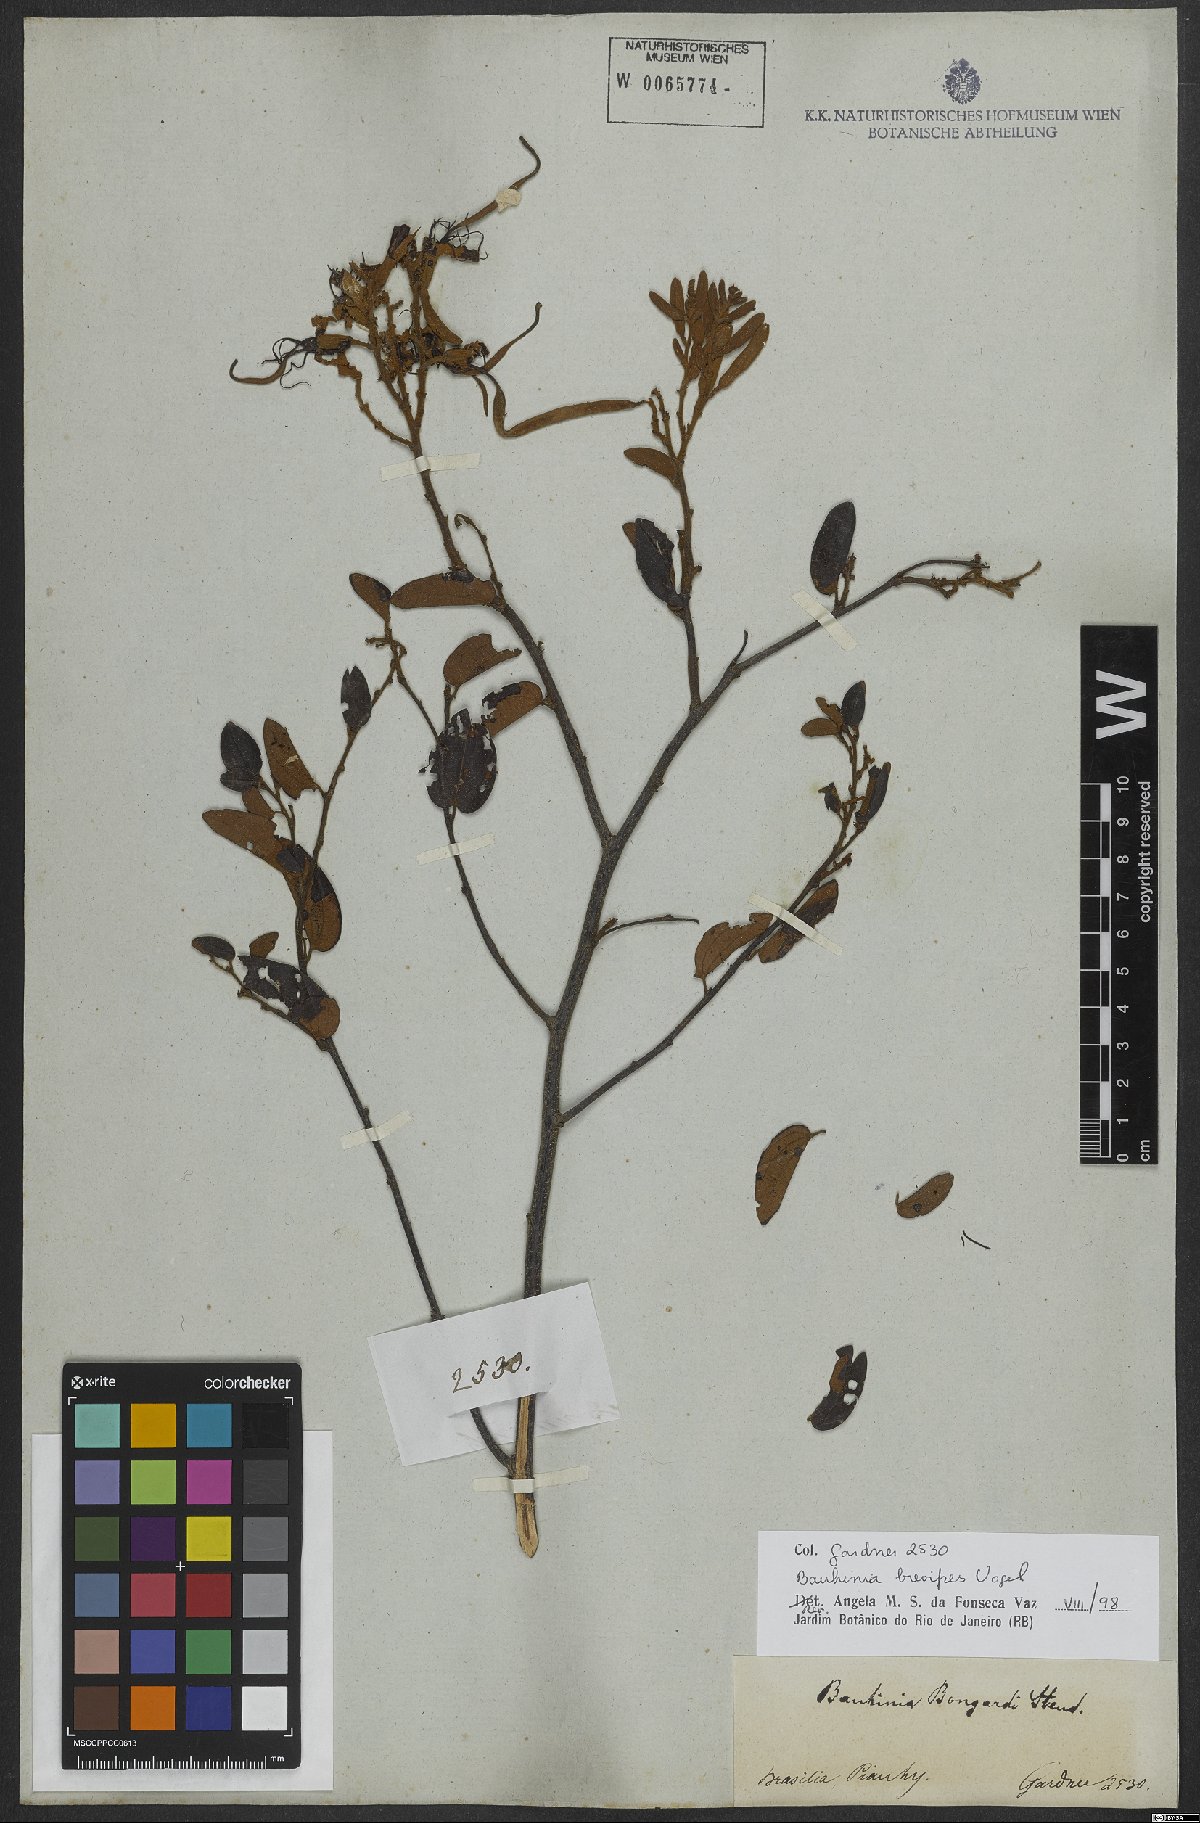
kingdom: Plantae
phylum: Tracheophyta
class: Magnoliopsida
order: Fabales
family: Fabaceae
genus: Bauhinia
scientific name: Bauhinia brevipes
